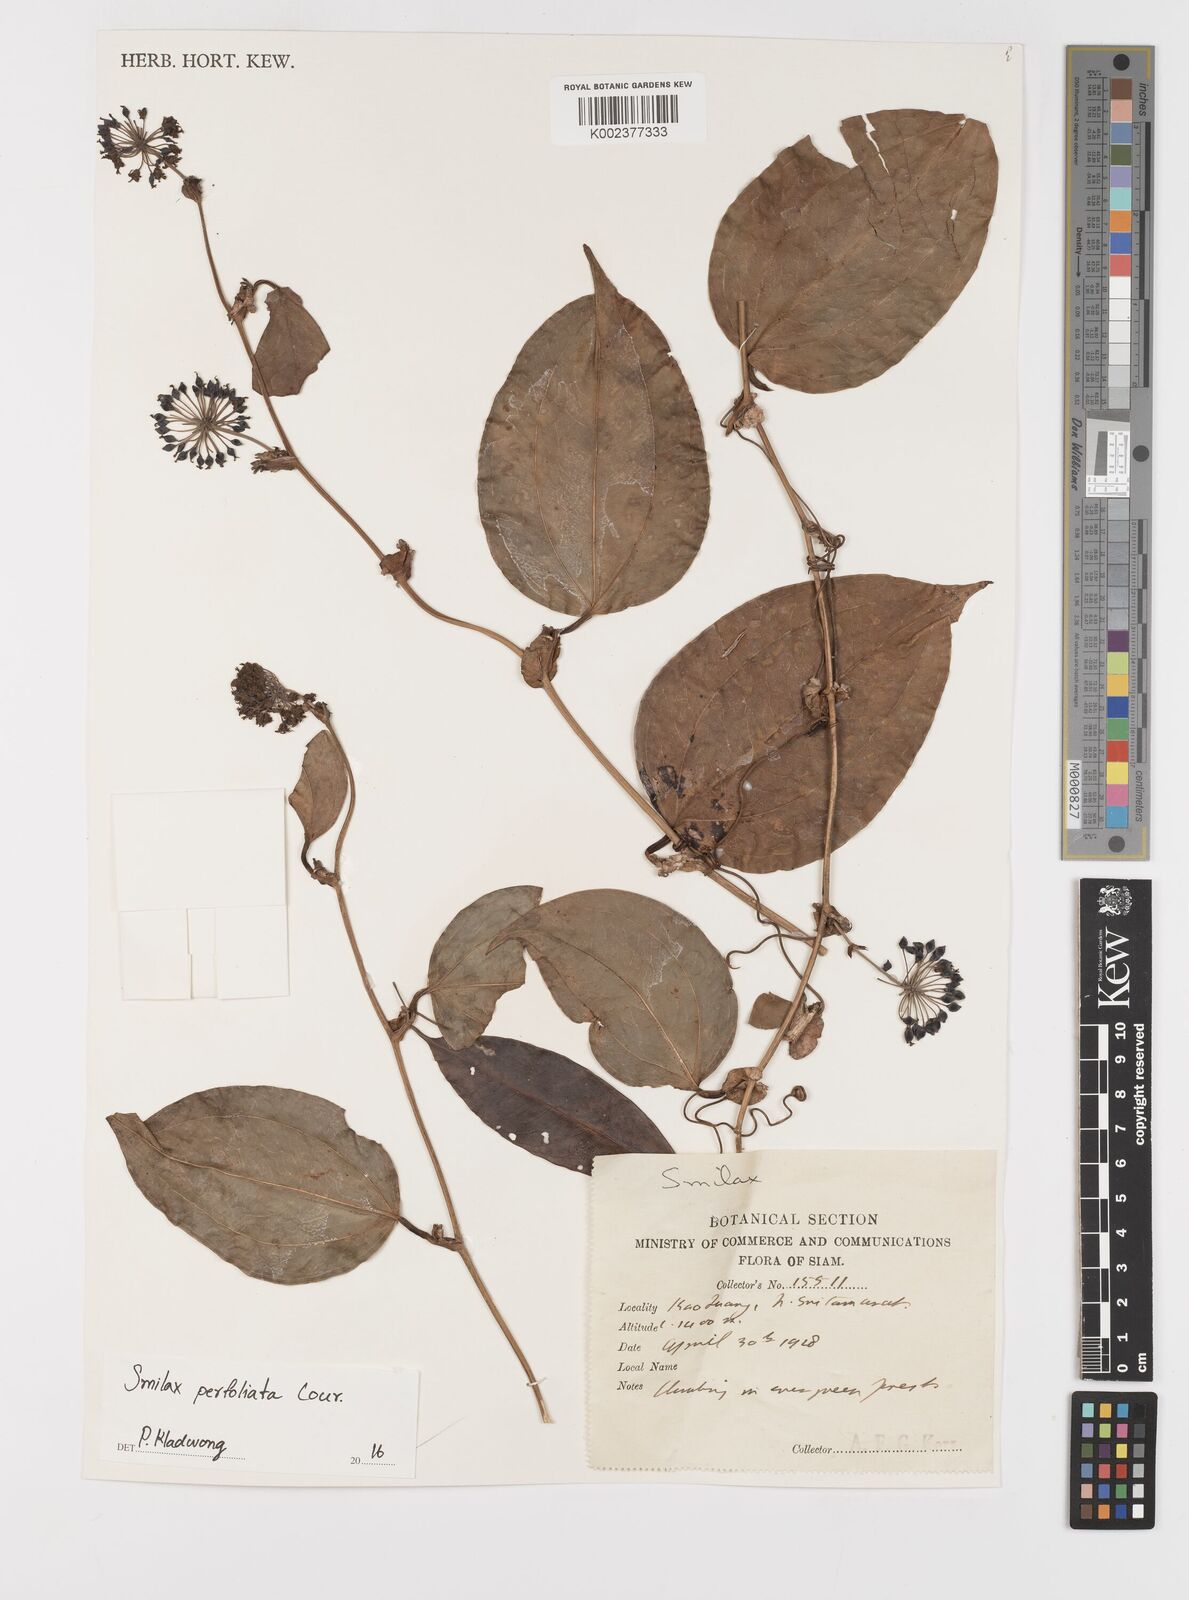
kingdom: Plantae
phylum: Tracheophyta
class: Liliopsida
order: Liliales
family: Smilacaceae
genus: Smilax
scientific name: Smilax perfoliata
